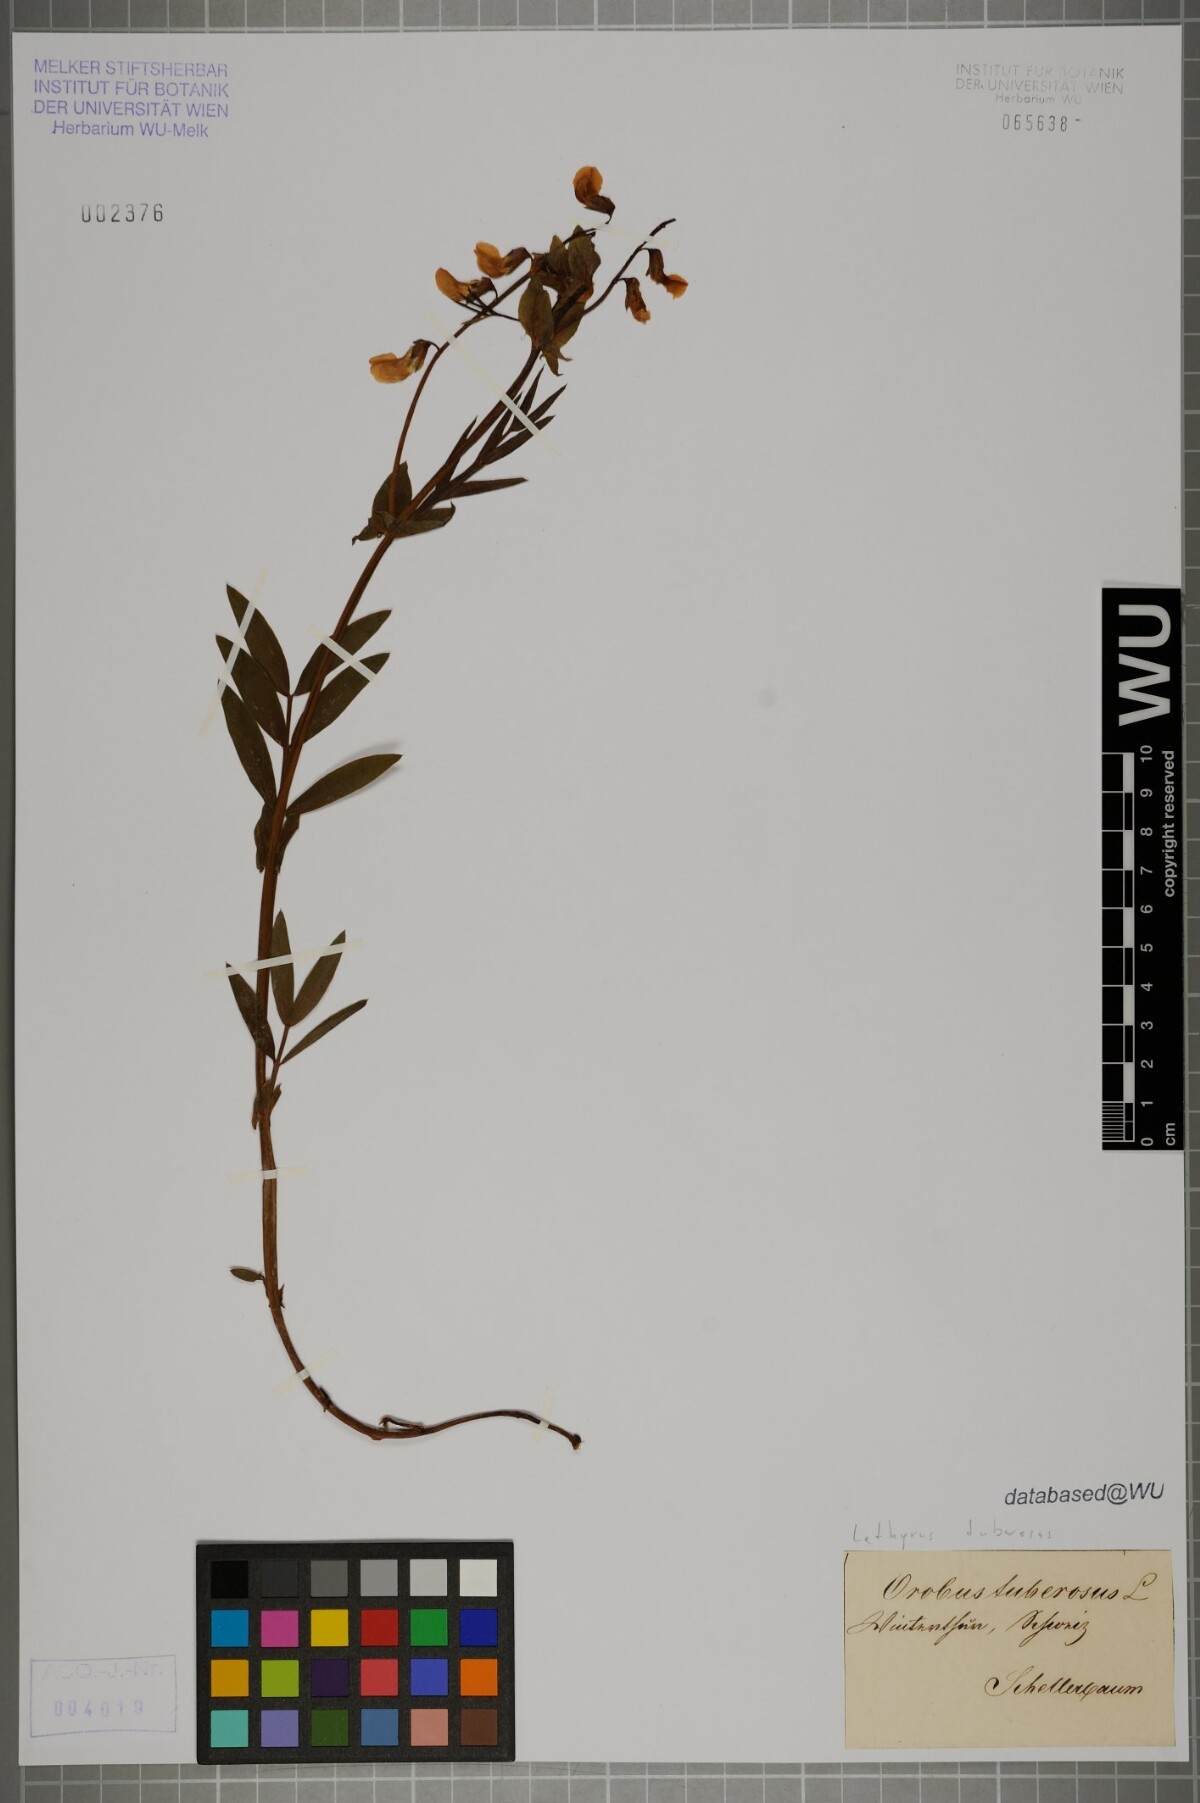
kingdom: Plantae
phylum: Tracheophyta
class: Magnoliopsida
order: Fabales
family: Fabaceae
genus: Lathyrus
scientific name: Lathyrus tuberosus
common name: Tuberous pea
